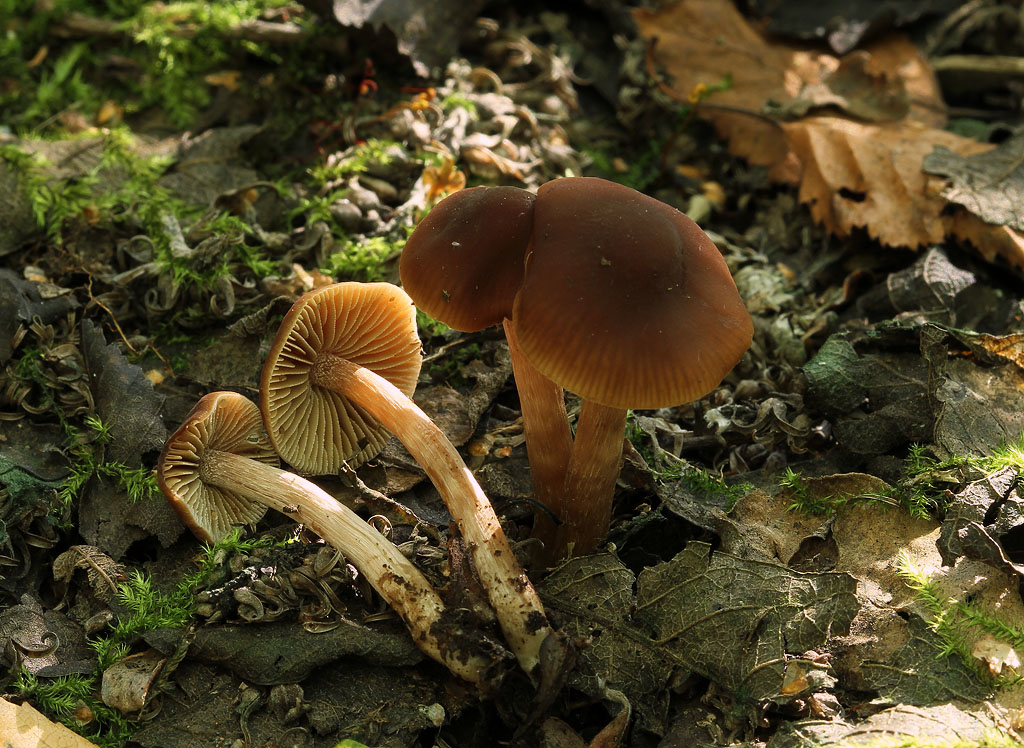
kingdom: Fungi
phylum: Basidiomycota
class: Agaricomycetes
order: Agaricales
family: Hymenogastraceae
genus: Naucoria
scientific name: Naucoria salicis
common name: pile-knaphat
